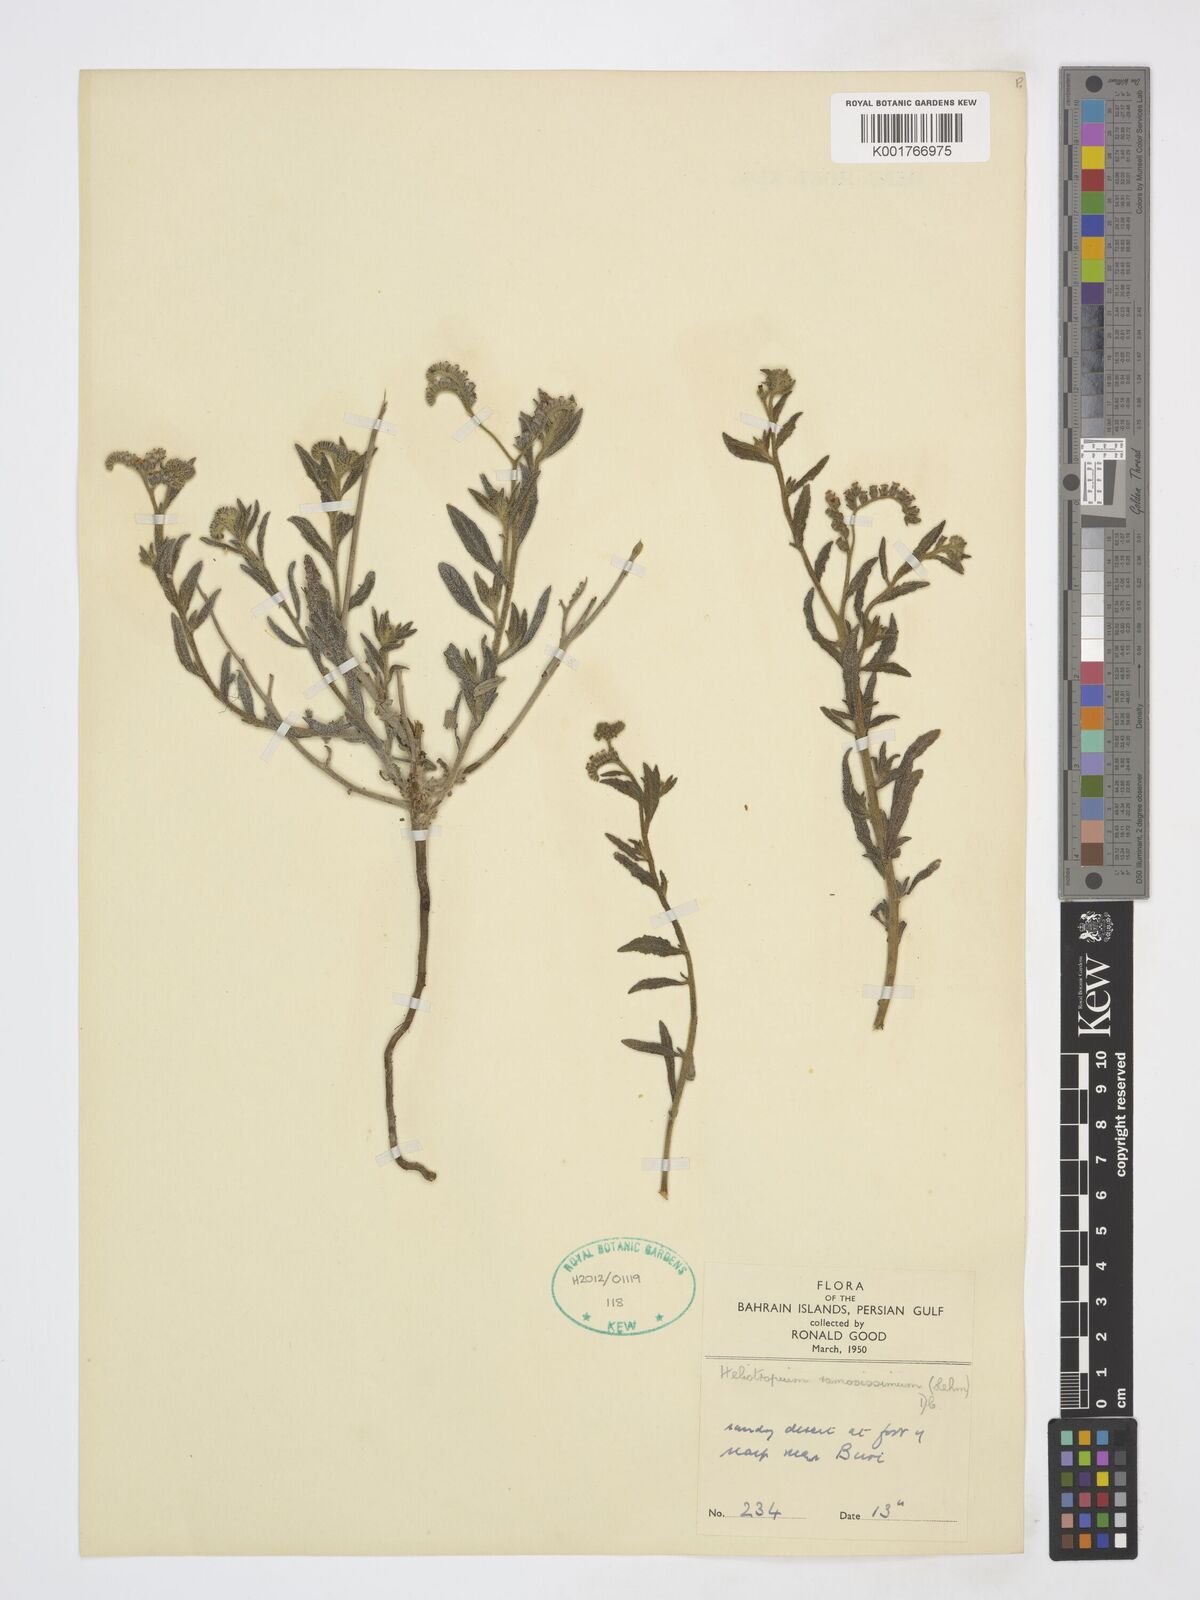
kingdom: Plantae
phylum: Tracheophyta
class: Magnoliopsida
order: Boraginales
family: Heliotropiaceae
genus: Heliotropium
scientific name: Heliotropium ramosissimum
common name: Wavy heliotrope
